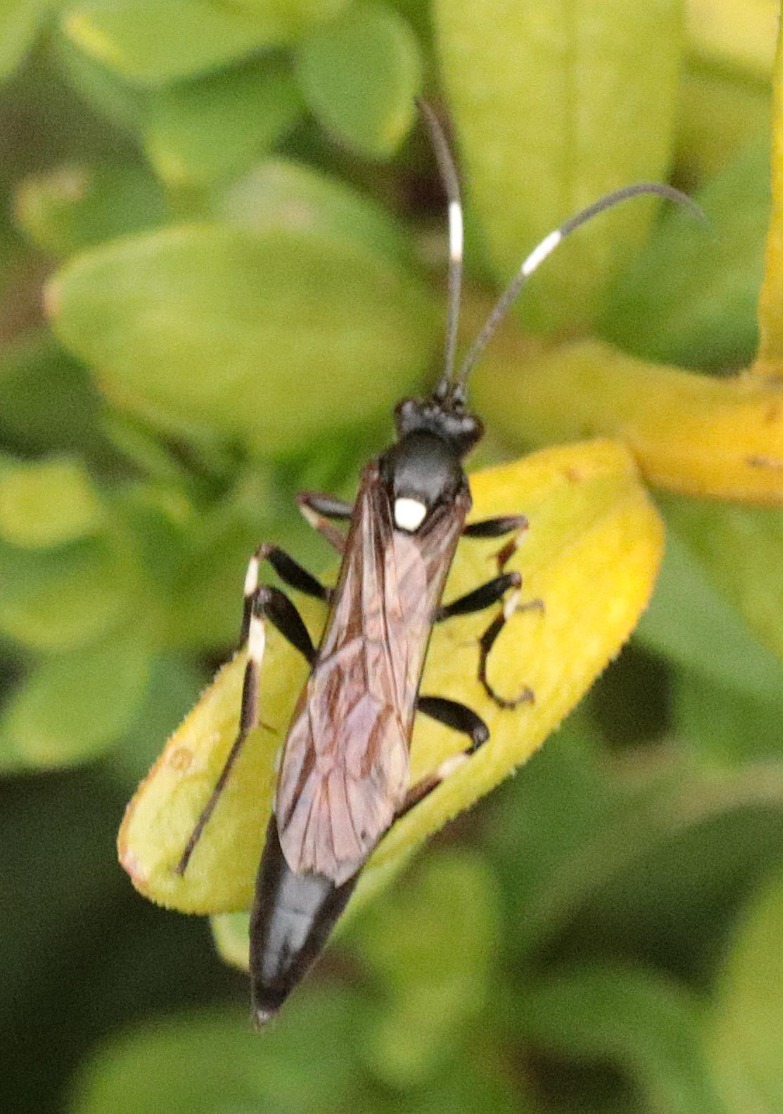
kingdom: Animalia
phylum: Arthropoda
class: Insecta
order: Hymenoptera
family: Ichneumonidae
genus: Stenichneumon
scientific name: Stenichneumon militarius
